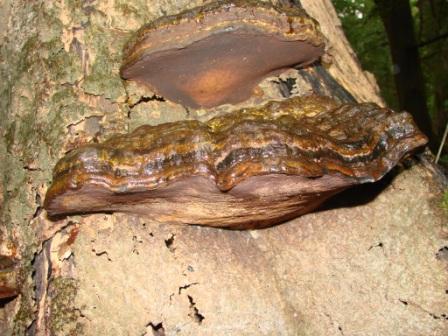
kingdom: Fungi
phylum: Basidiomycota
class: Agaricomycetes
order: Polyporales
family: Polyporaceae
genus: Ganoderma
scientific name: Ganoderma pfeifferi
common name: kobberrød lakporesvamp
